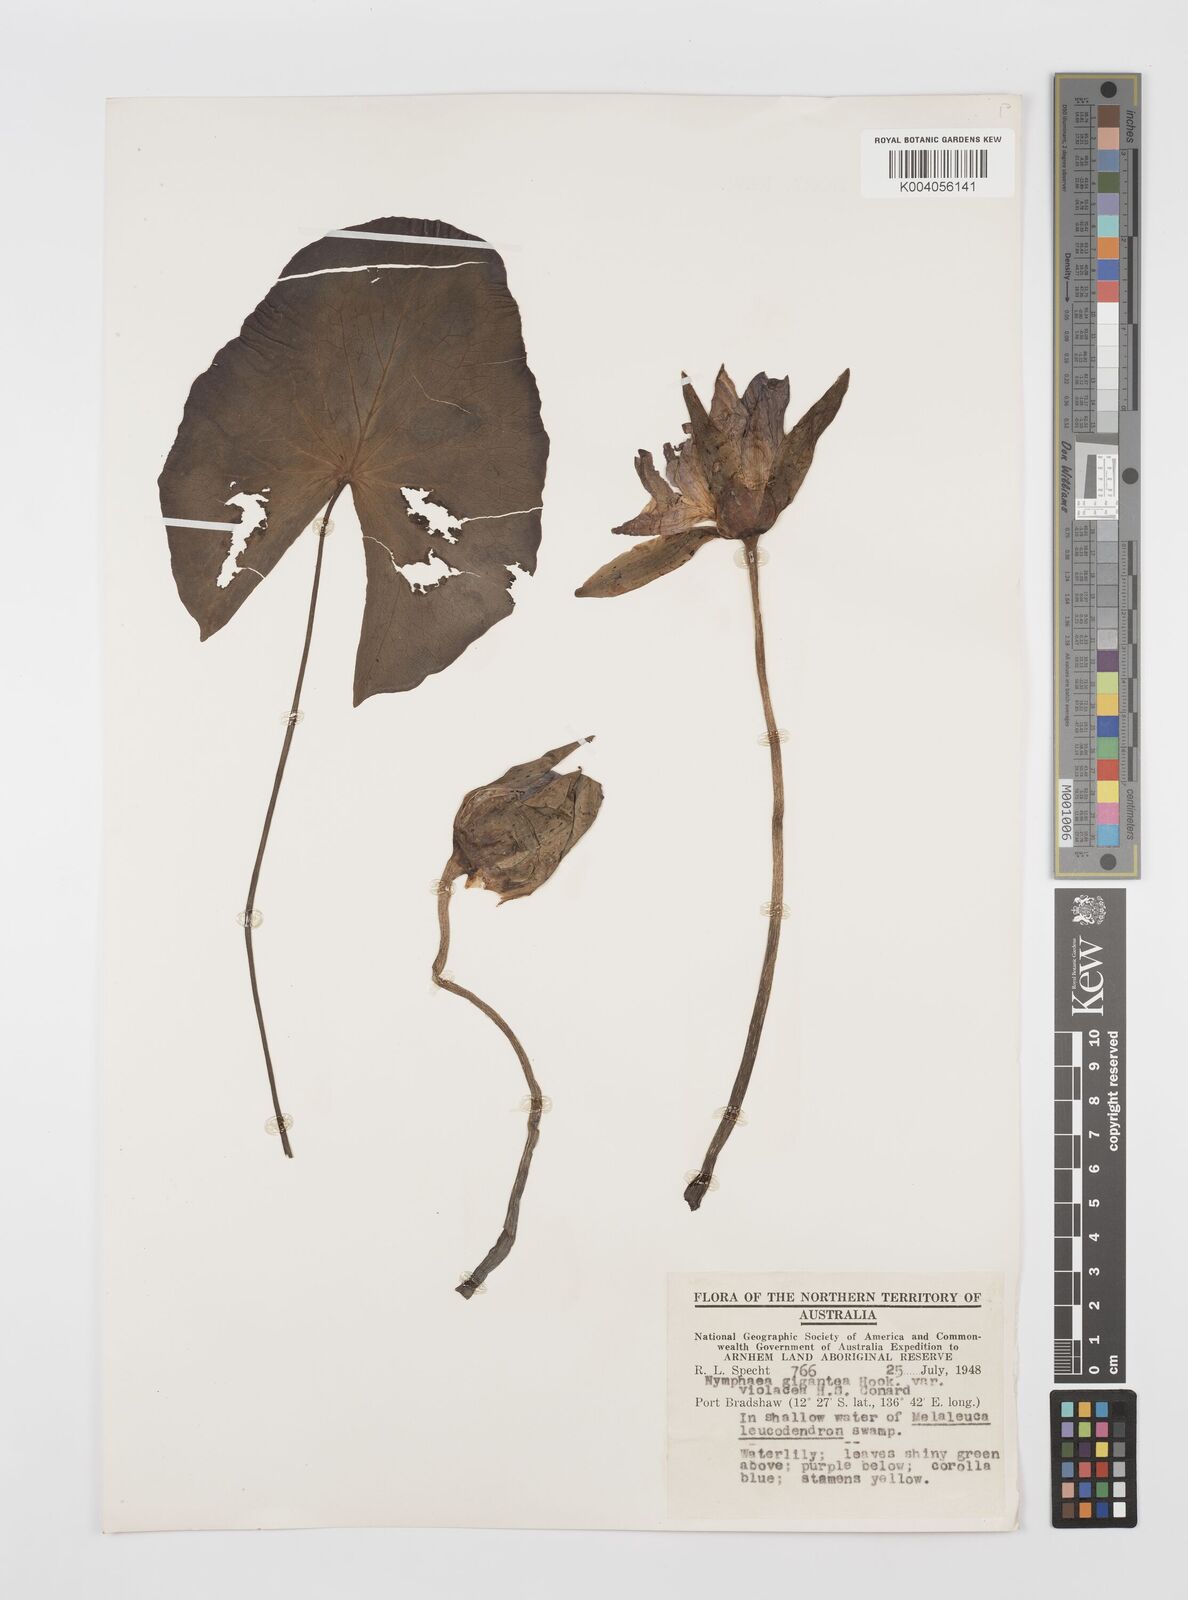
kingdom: Plantae
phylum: Tracheophyta
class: Magnoliopsida
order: Nymphaeales
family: Nymphaeaceae
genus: Nymphaea
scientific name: Nymphaea gigantea
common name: Giant water-lily
